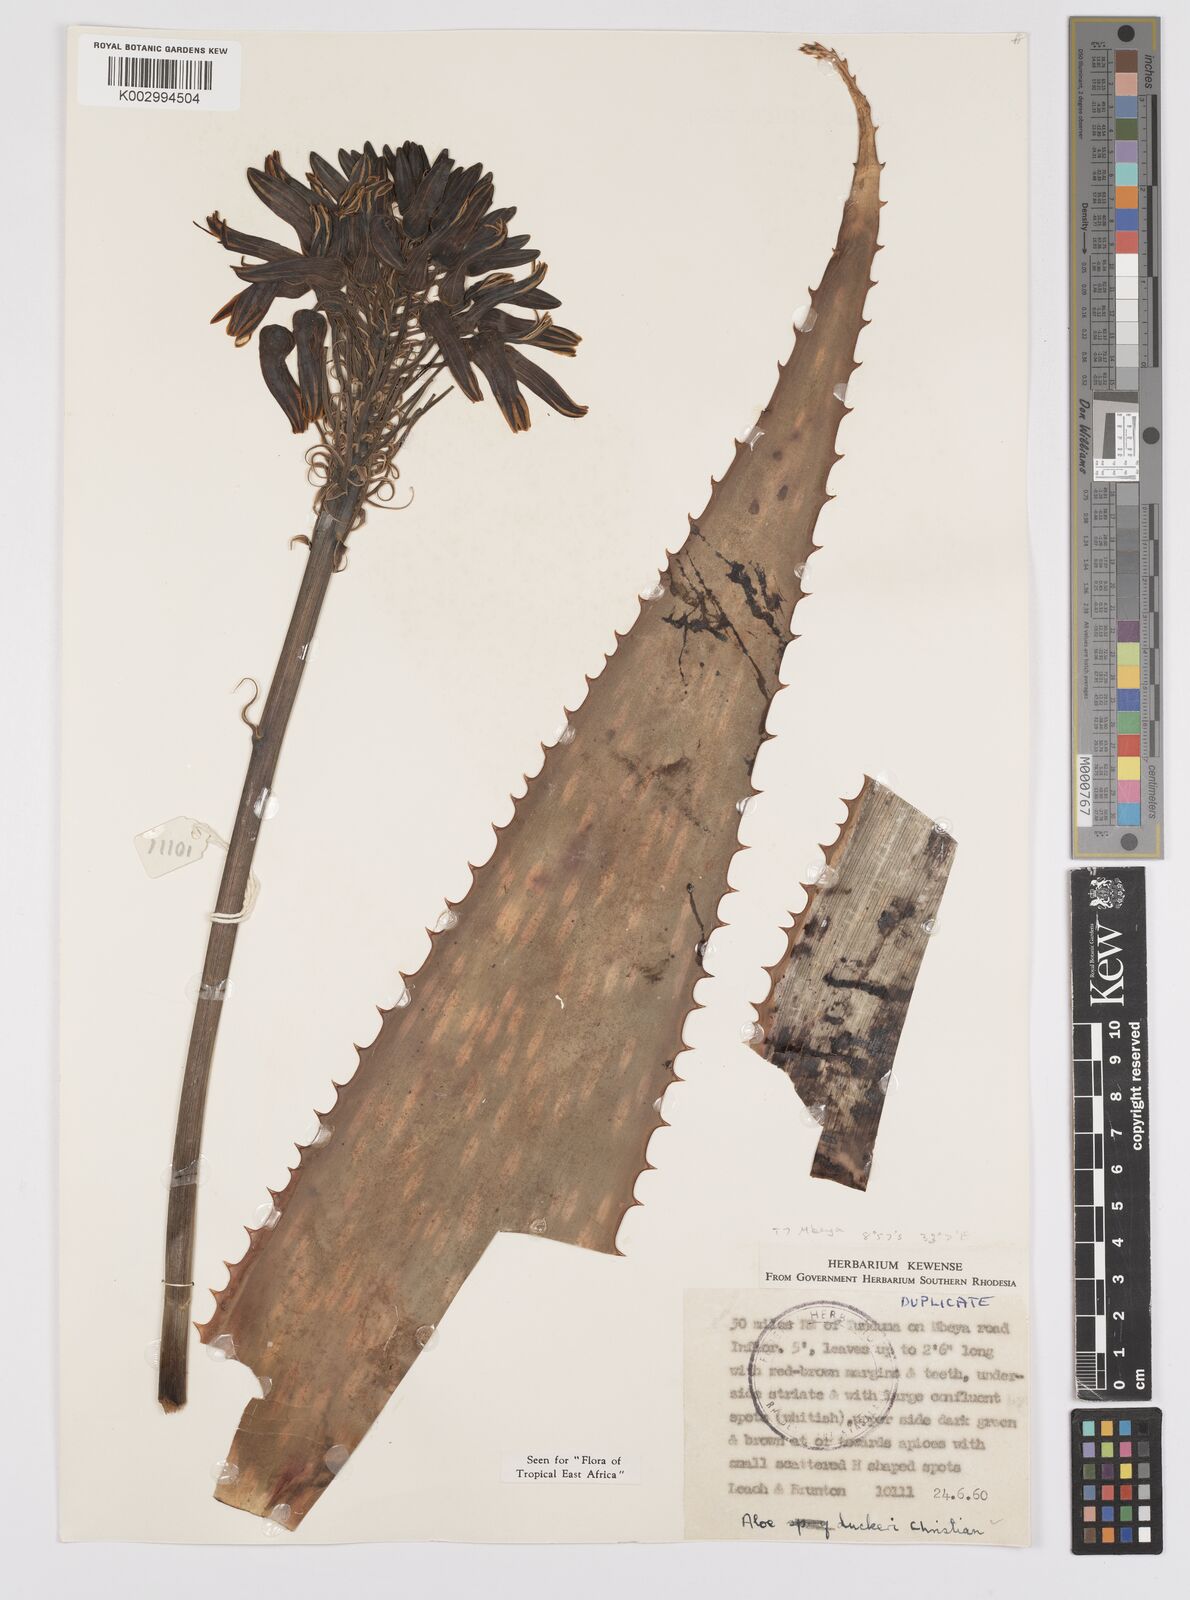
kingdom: Plantae
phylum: Tracheophyta
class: Liliopsida
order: Asparagales
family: Asphodelaceae
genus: Aloe
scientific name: Aloe duckeri
